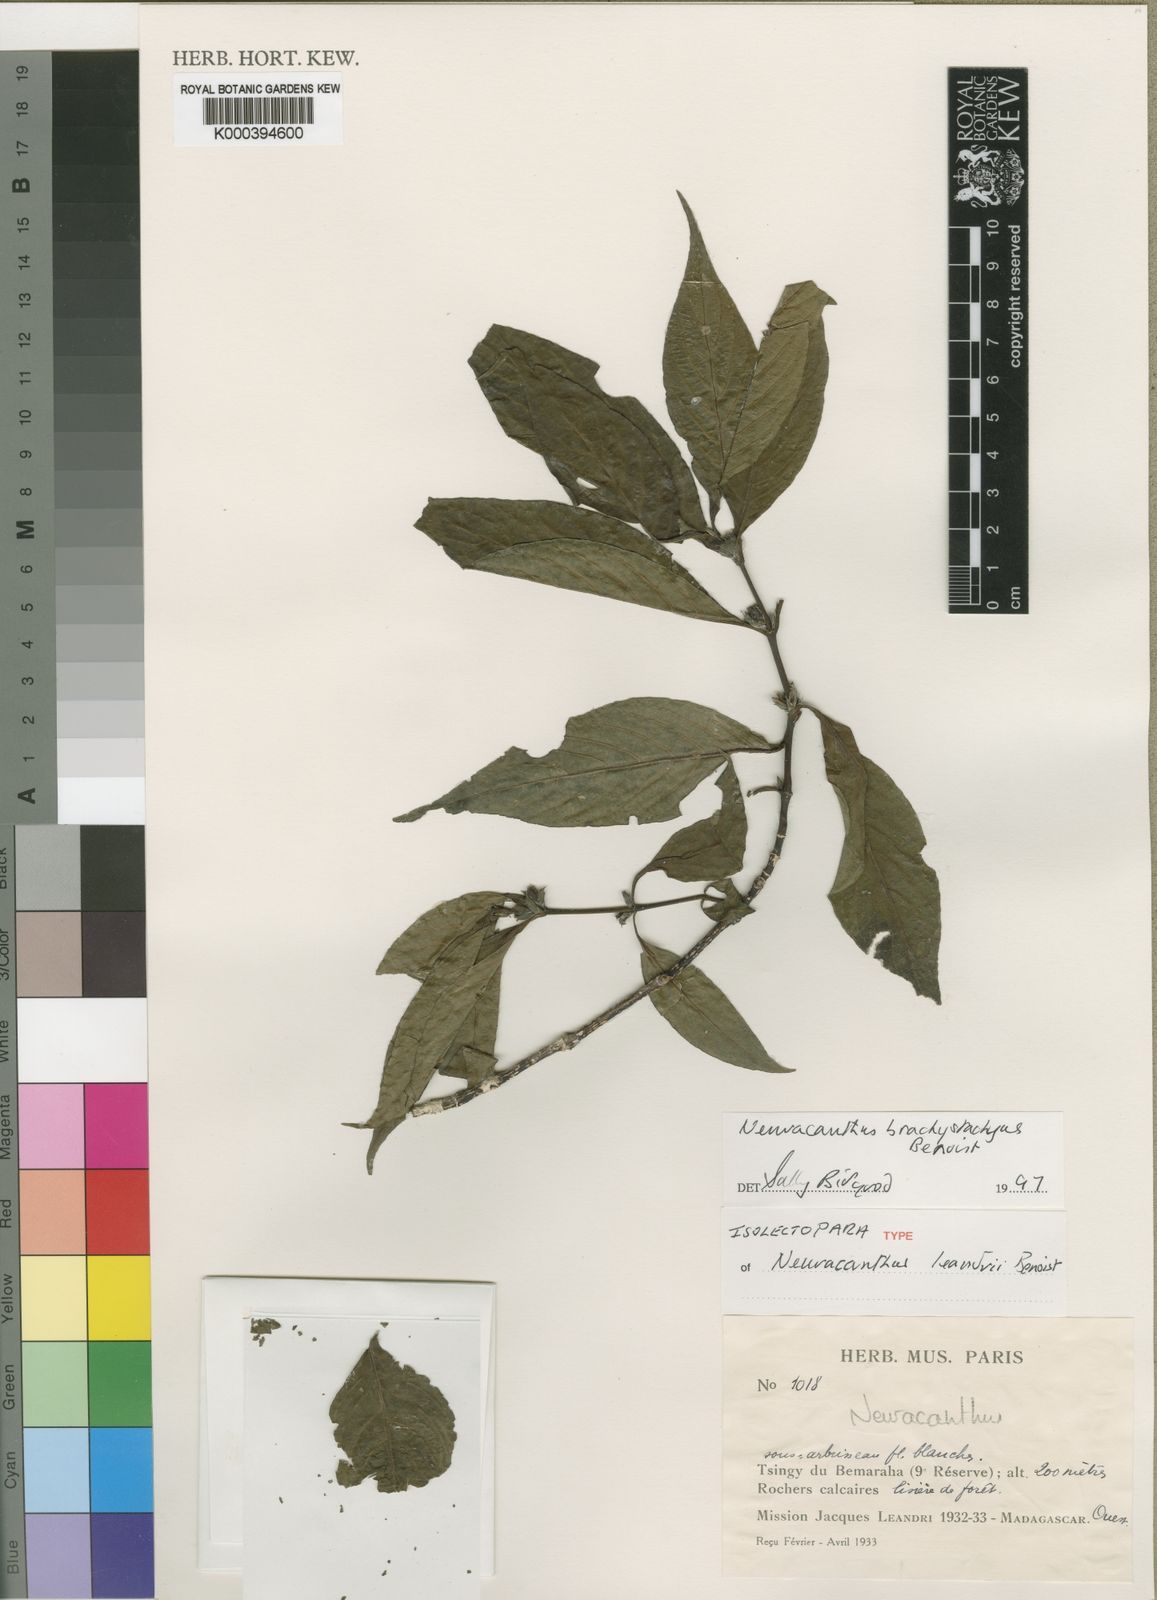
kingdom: Plantae
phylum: Tracheophyta
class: Magnoliopsida
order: Lamiales
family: Acanthaceae
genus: Neuracanthus
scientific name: Neuracanthus brachystachyus
